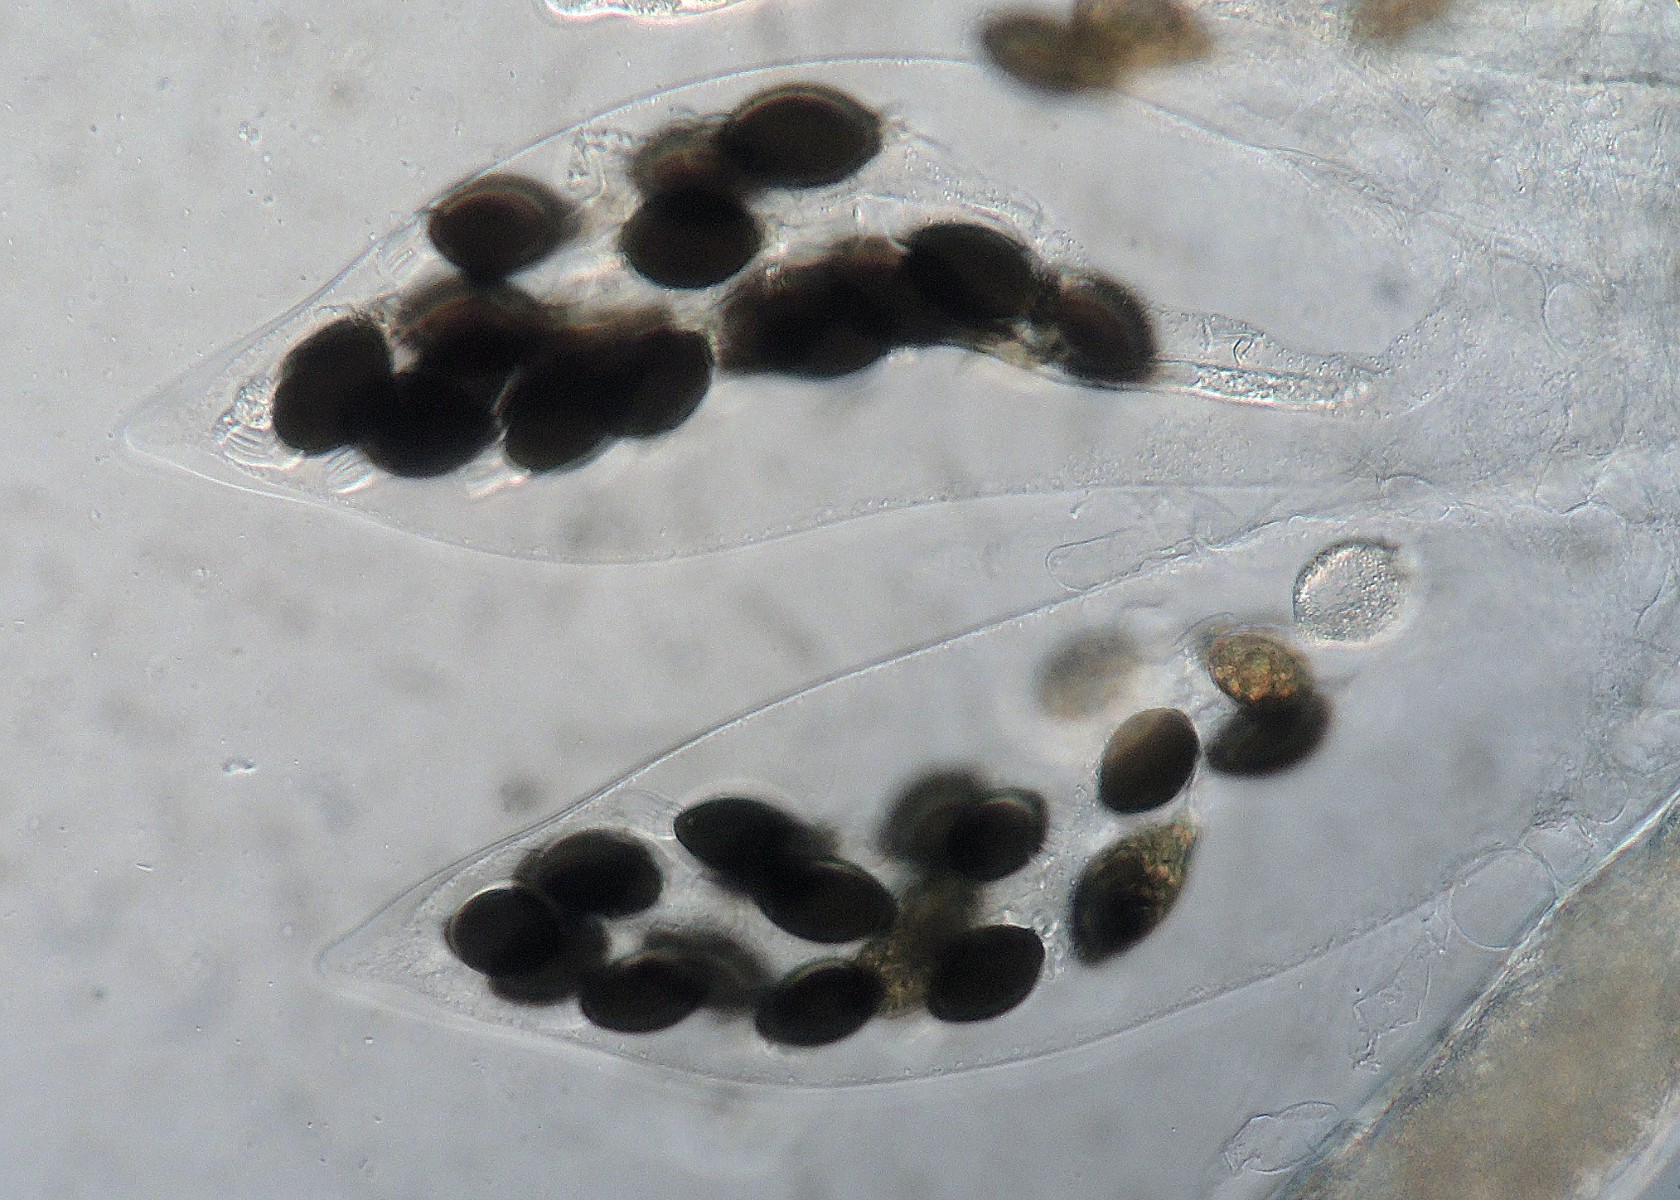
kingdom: Fungi
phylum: Ascomycota
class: Sordariomycetes
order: Sordariales
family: Naviculisporaceae
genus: Rhypophila
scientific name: Rhypophila pleiospora
